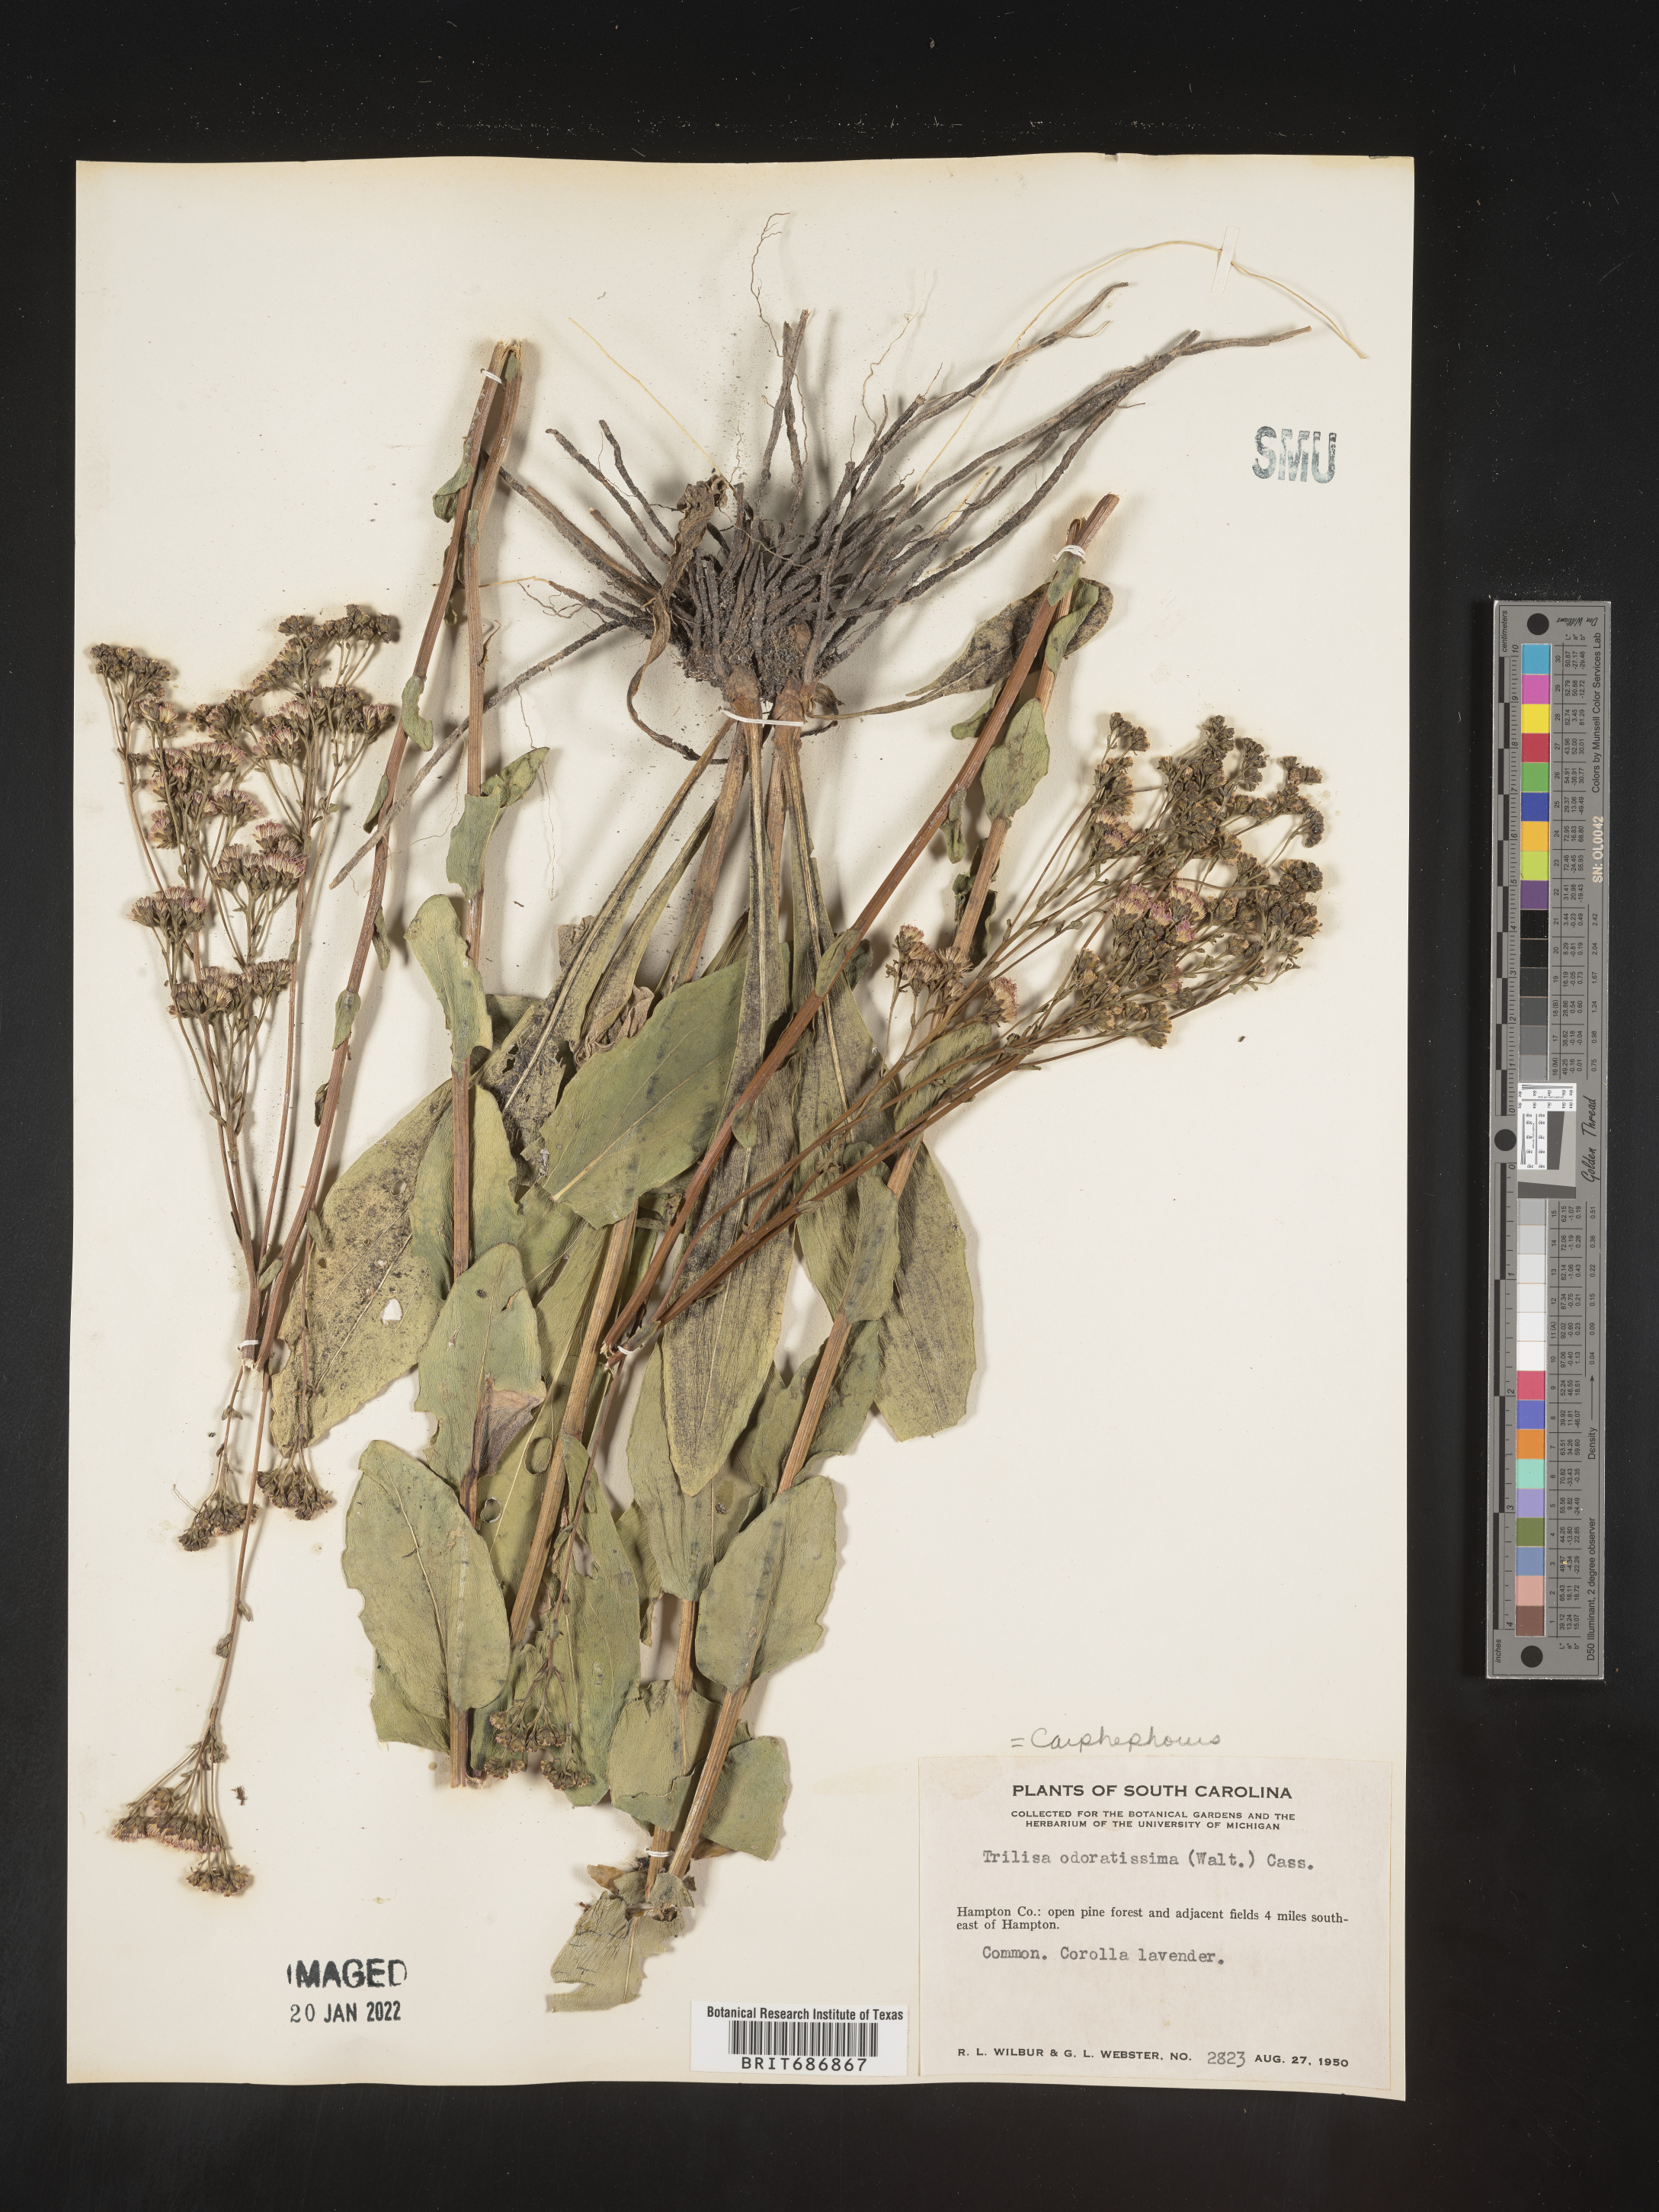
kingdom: Plantae
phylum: Tracheophyta
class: Magnoliopsida
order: Asterales
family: Asteraceae
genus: Carphephorus
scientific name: Carphephorus odoratissimus
